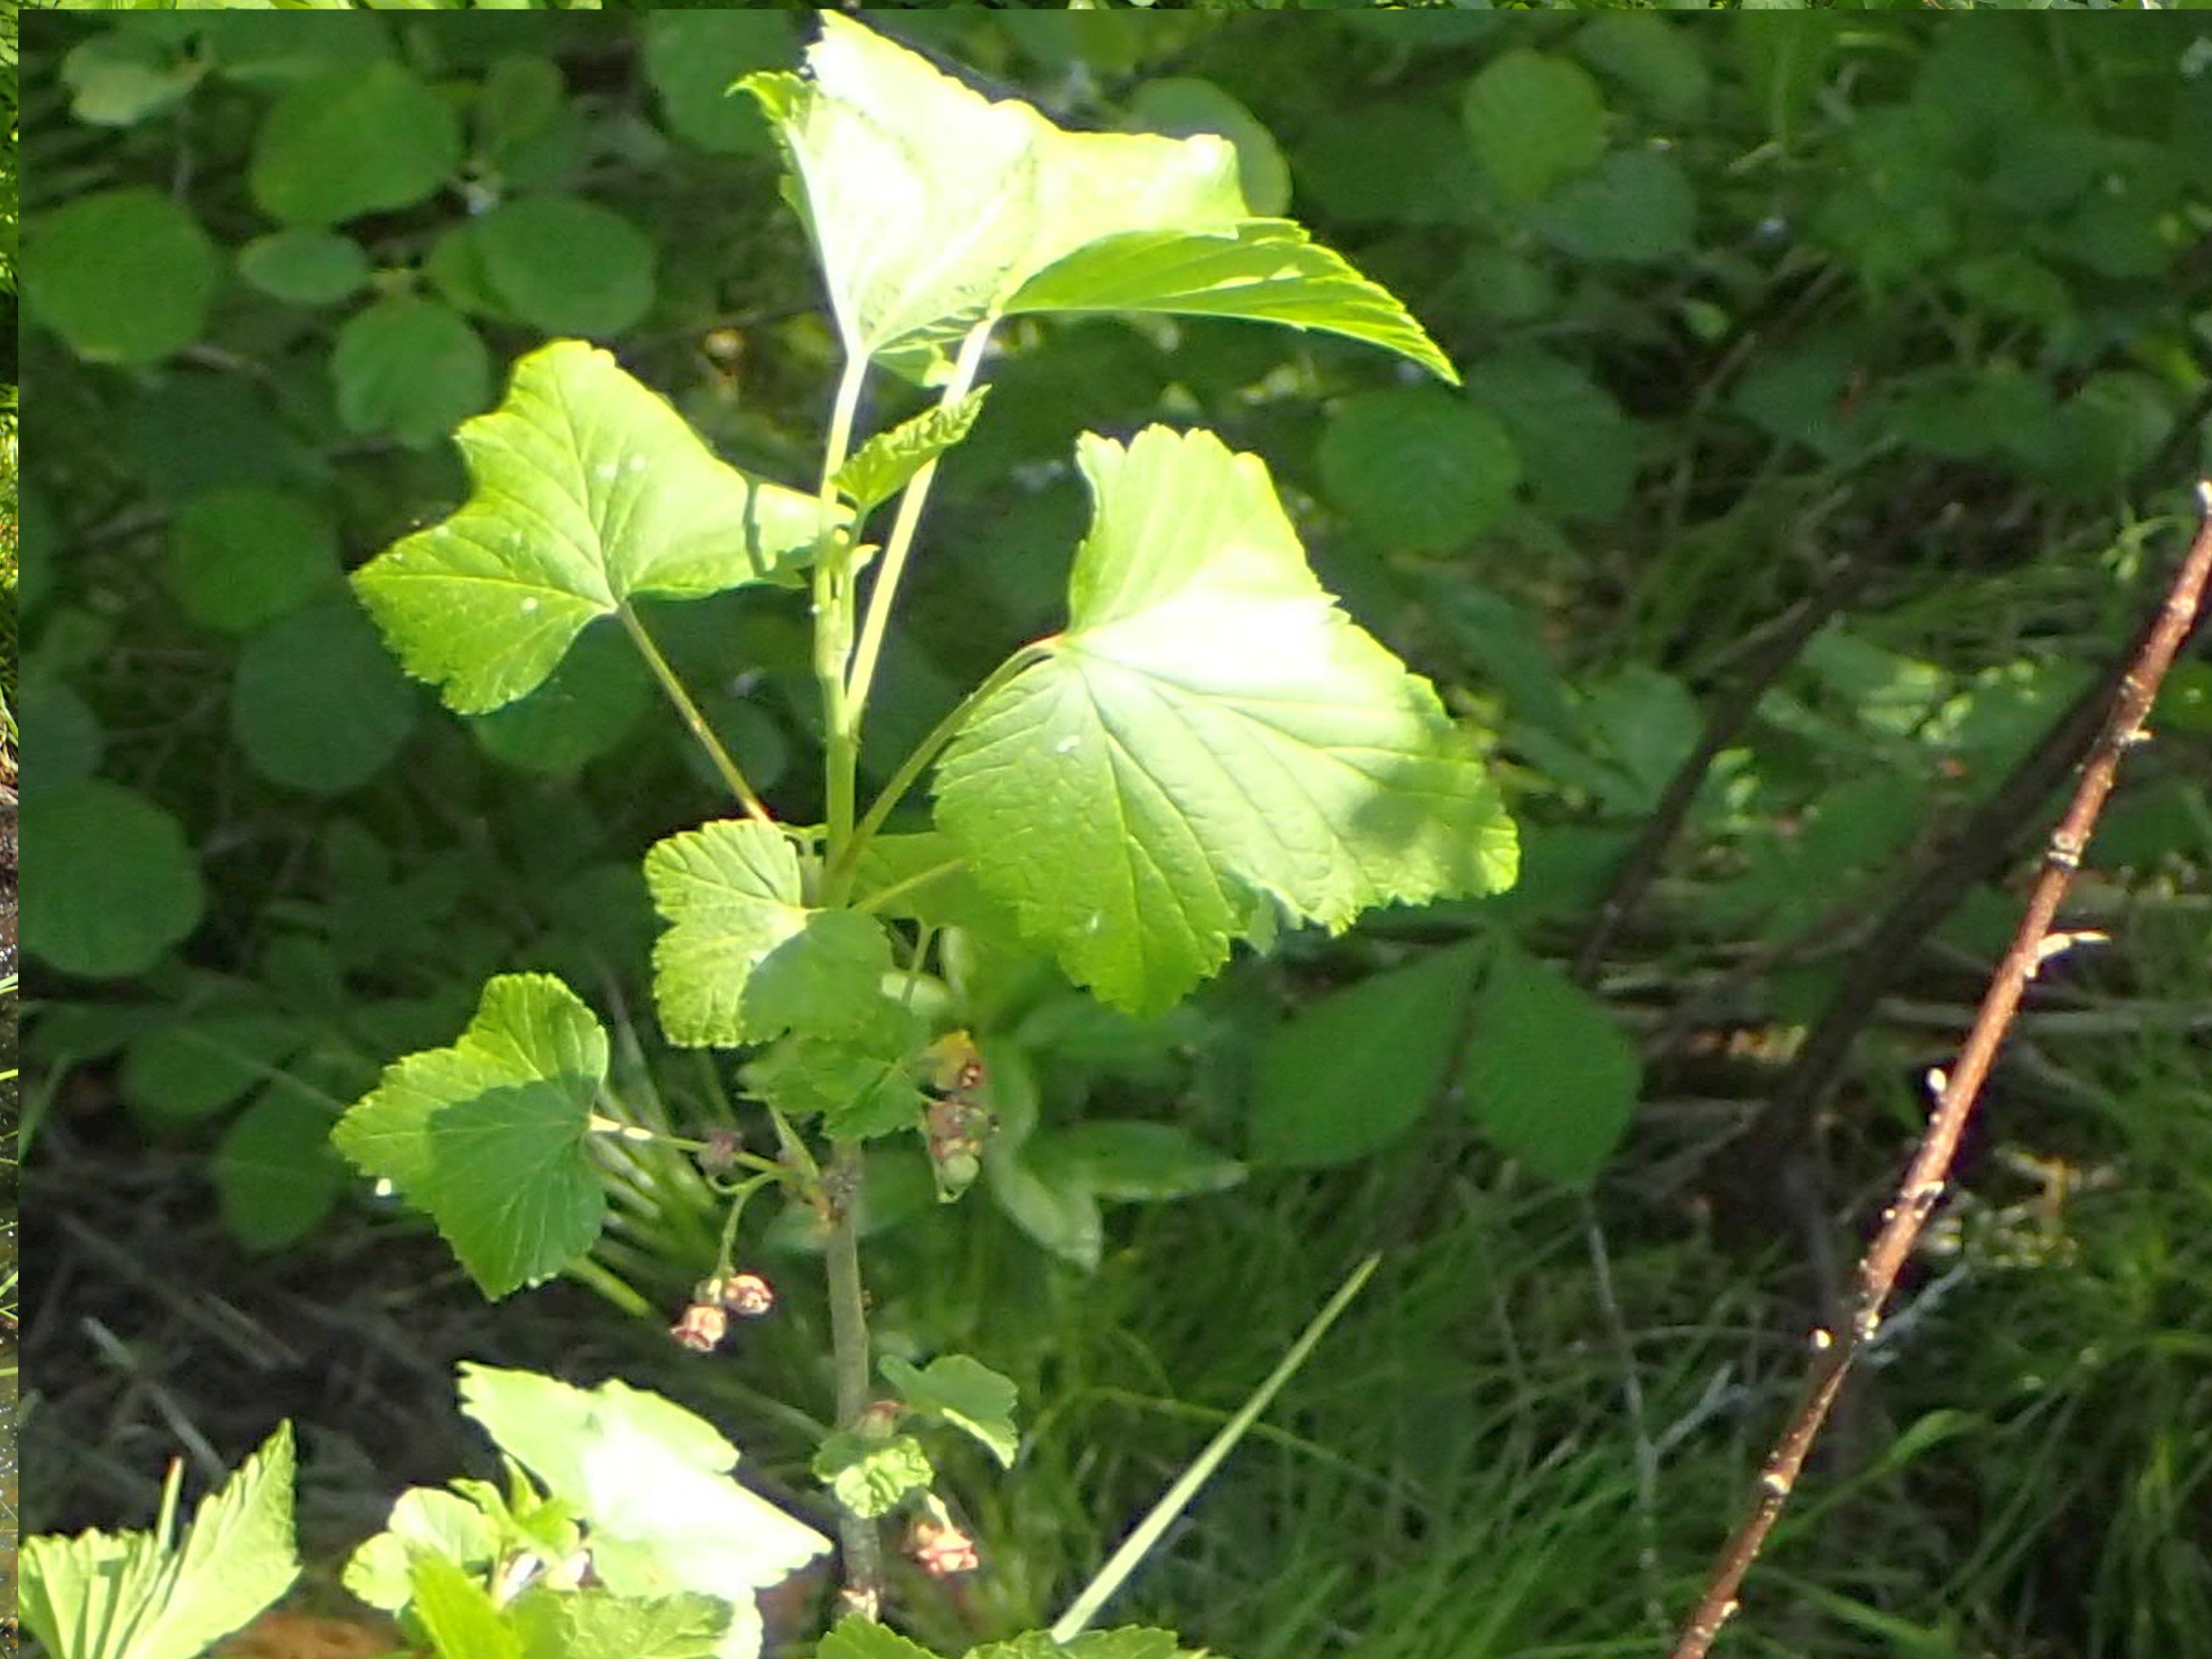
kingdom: Plantae
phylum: Tracheophyta
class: Magnoliopsida
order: Saxifragales
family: Grossulariaceae
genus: Ribes
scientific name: Ribes nigrum
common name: Solbær
